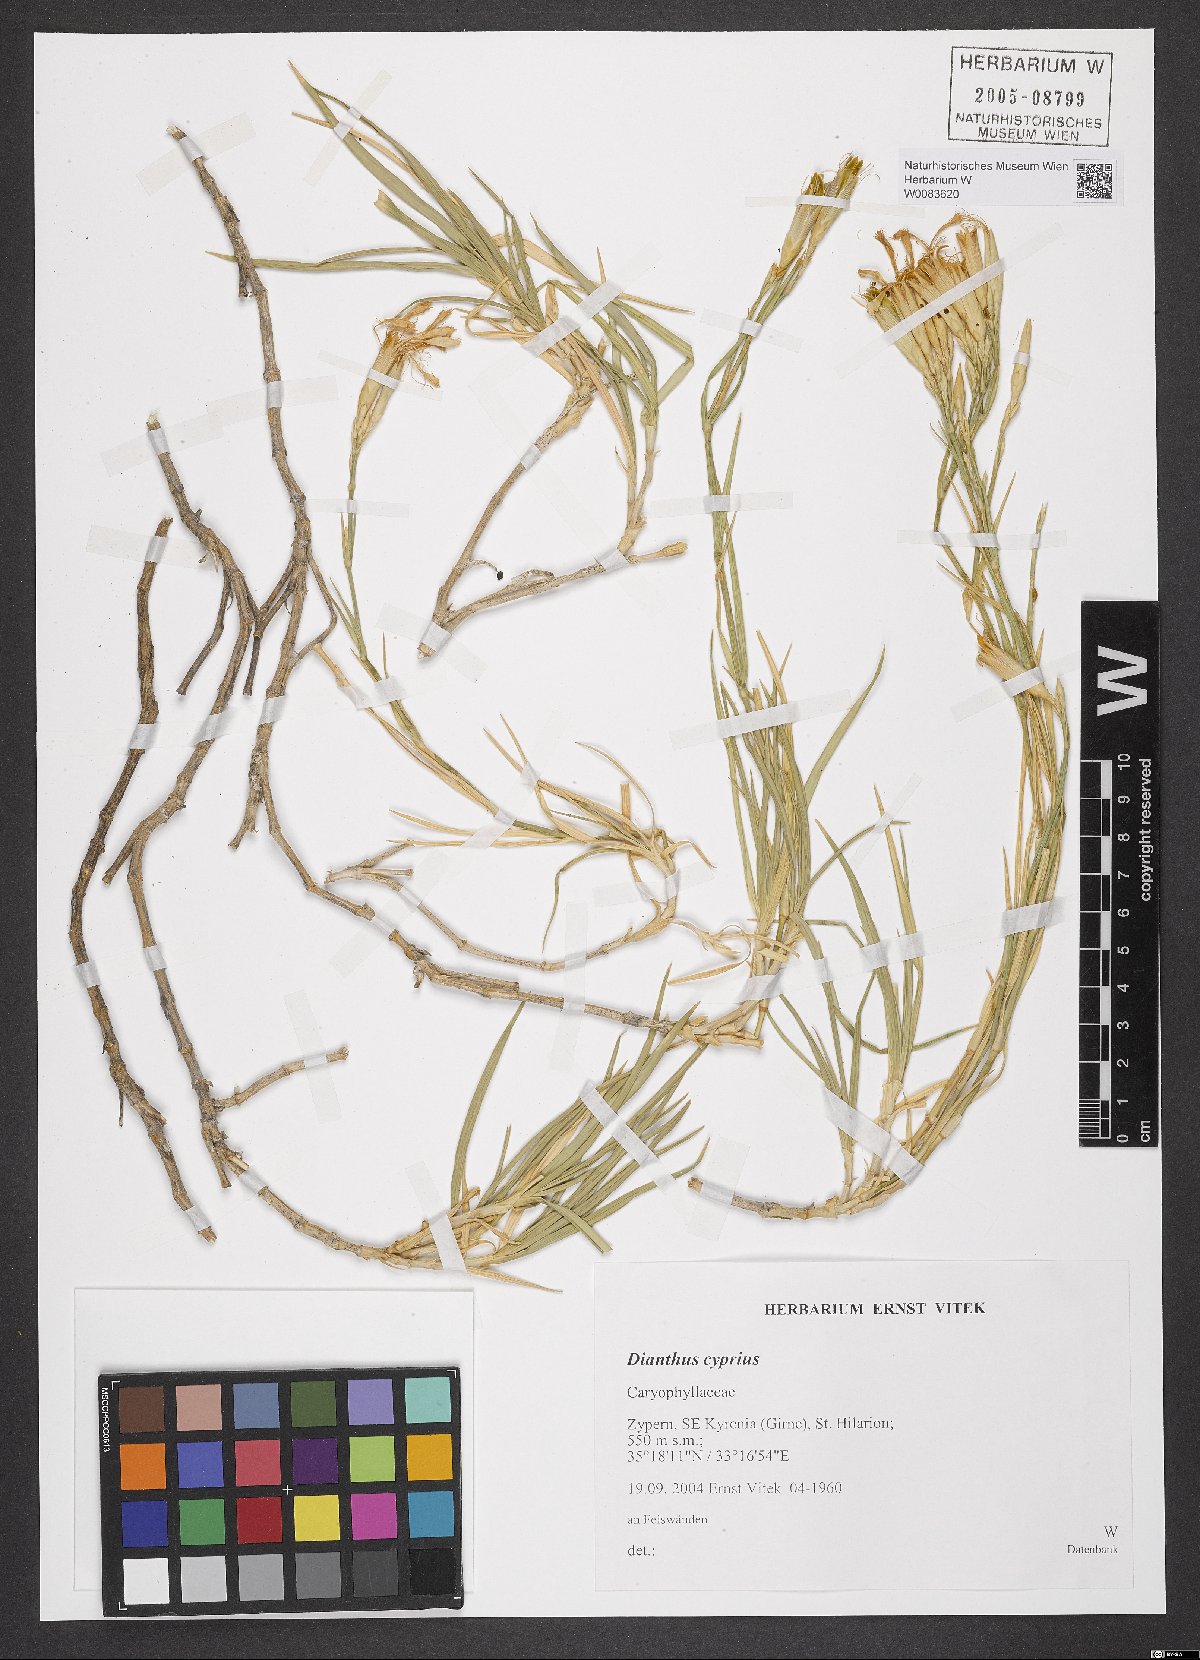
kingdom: Plantae
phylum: Tracheophyta
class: Magnoliopsida
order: Caryophyllales
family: Caryophyllaceae
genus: Dianthus
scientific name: Dianthus cyprius
